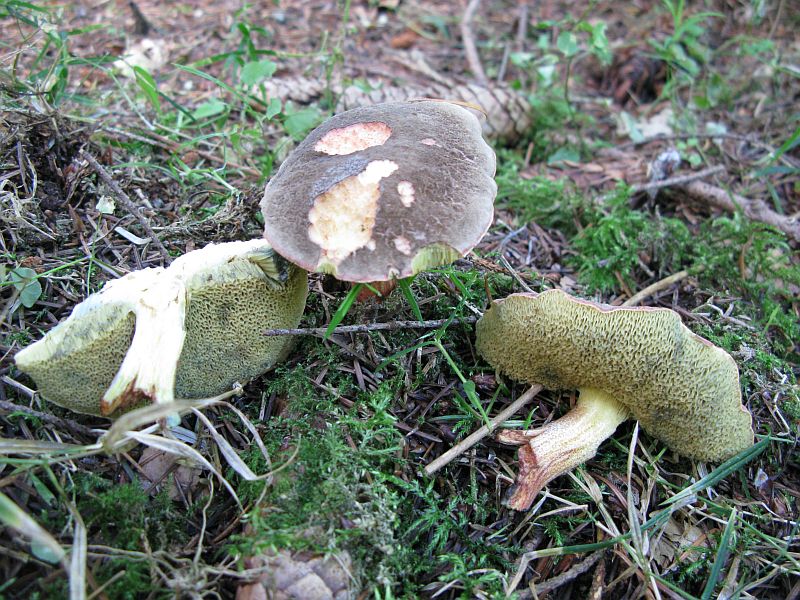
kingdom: Fungi
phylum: Basidiomycota
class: Agaricomycetes
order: Boletales
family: Boletaceae
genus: Xerocomellus
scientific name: Xerocomellus chrysenteron
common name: rødsprukken rørhat
